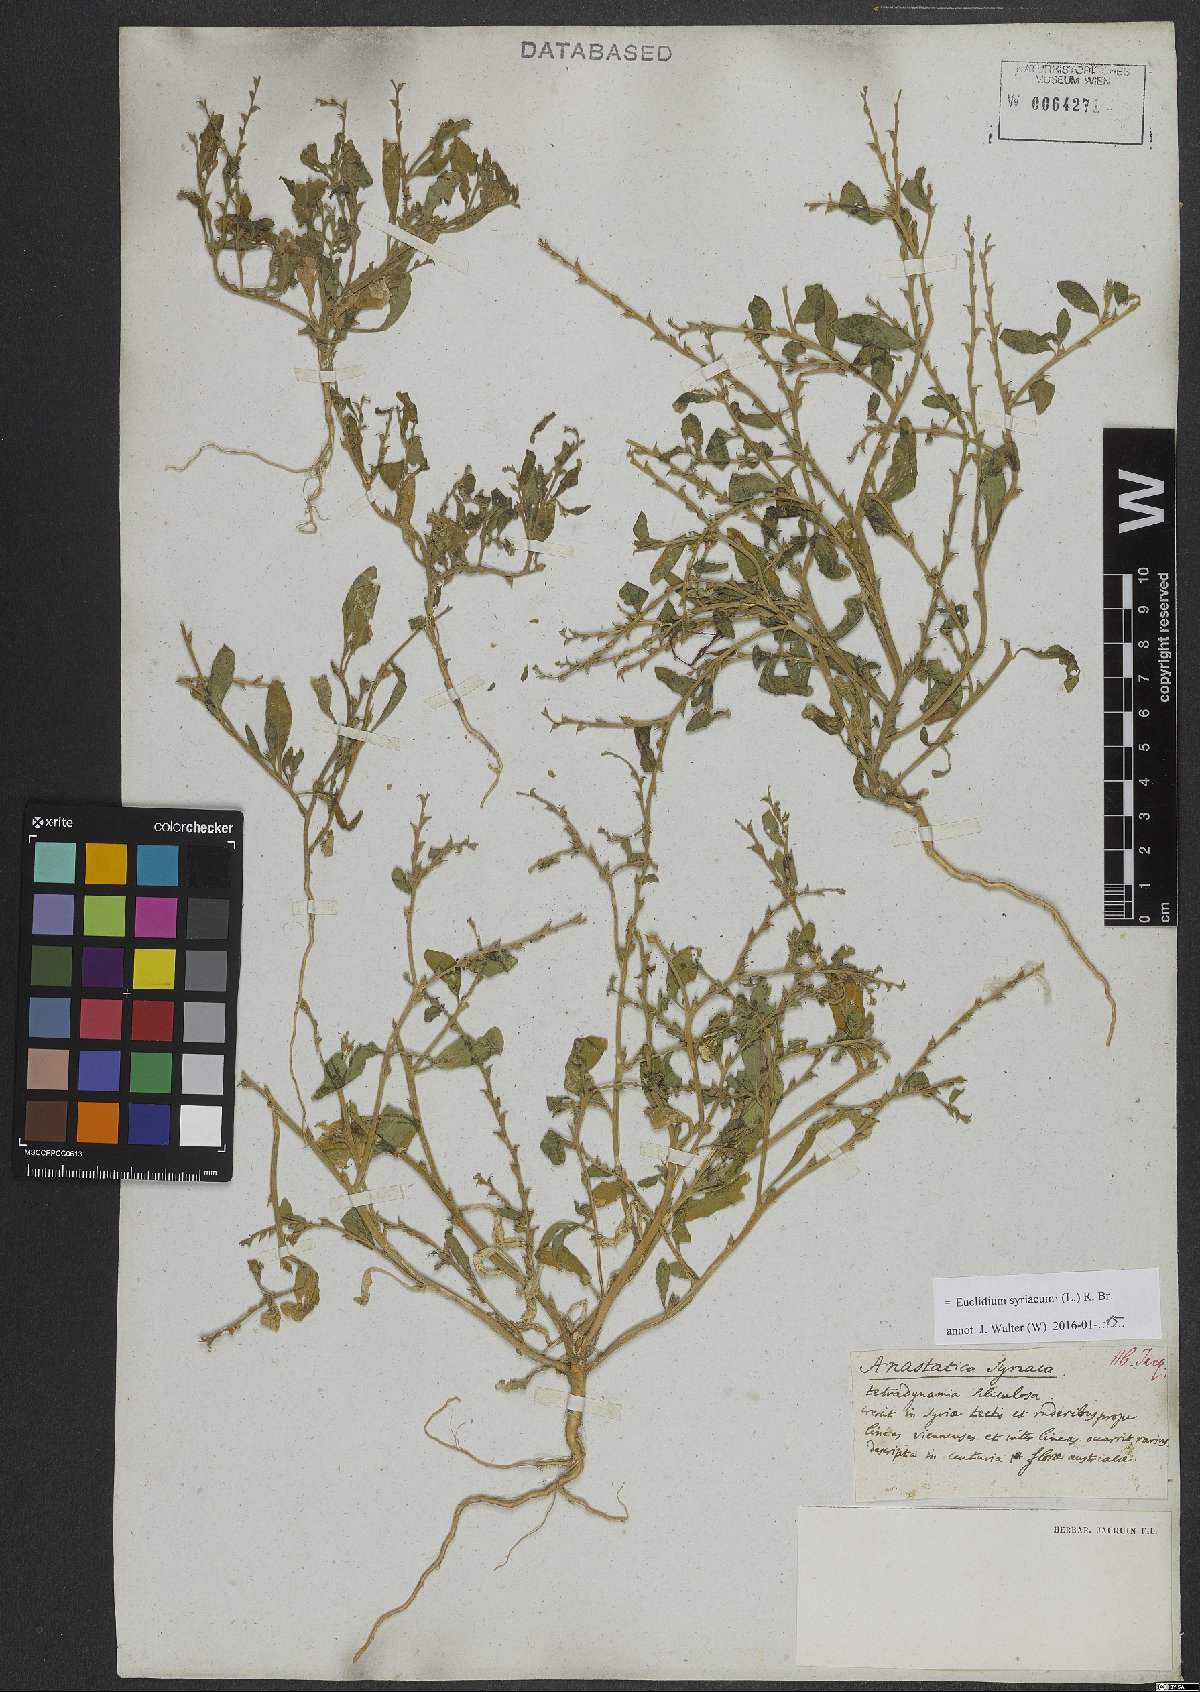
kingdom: Plantae
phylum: Tracheophyta
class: Magnoliopsida
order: Brassicales
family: Brassicaceae
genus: Euclidium
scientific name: Euclidium syriacum
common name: Syrian mustard
